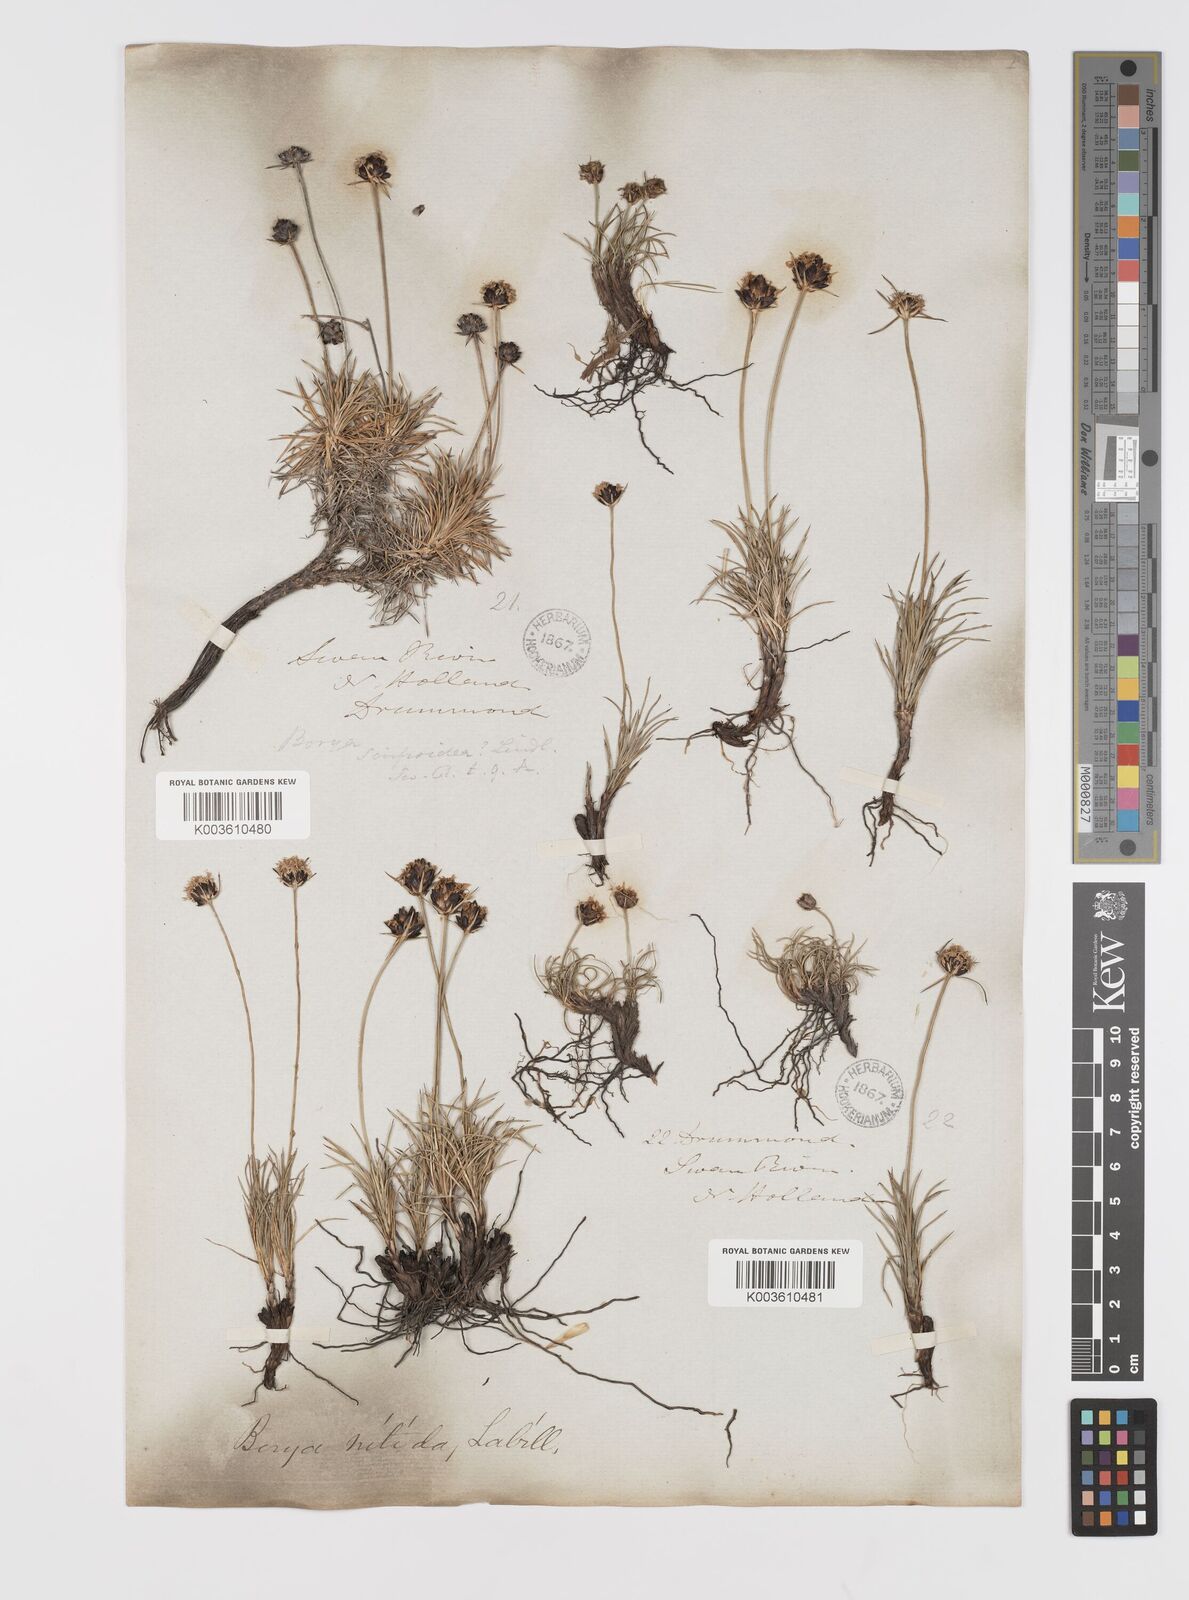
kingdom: Plantae
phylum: Tracheophyta
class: Liliopsida
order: Asparagales
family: Boryaceae
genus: Borya
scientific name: Borya nitida
